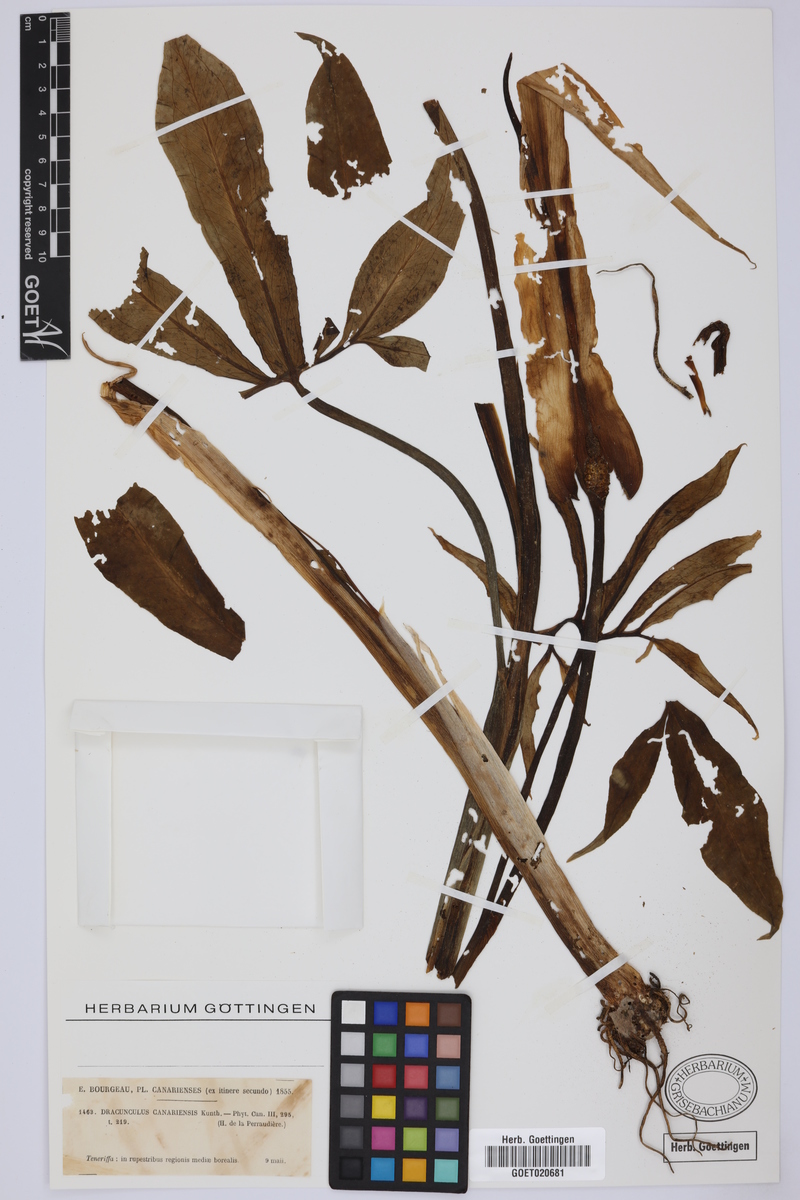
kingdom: Plantae
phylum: Tracheophyta
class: Liliopsida
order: Alismatales
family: Araceae
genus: Dracunculus
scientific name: Dracunculus canariensis
